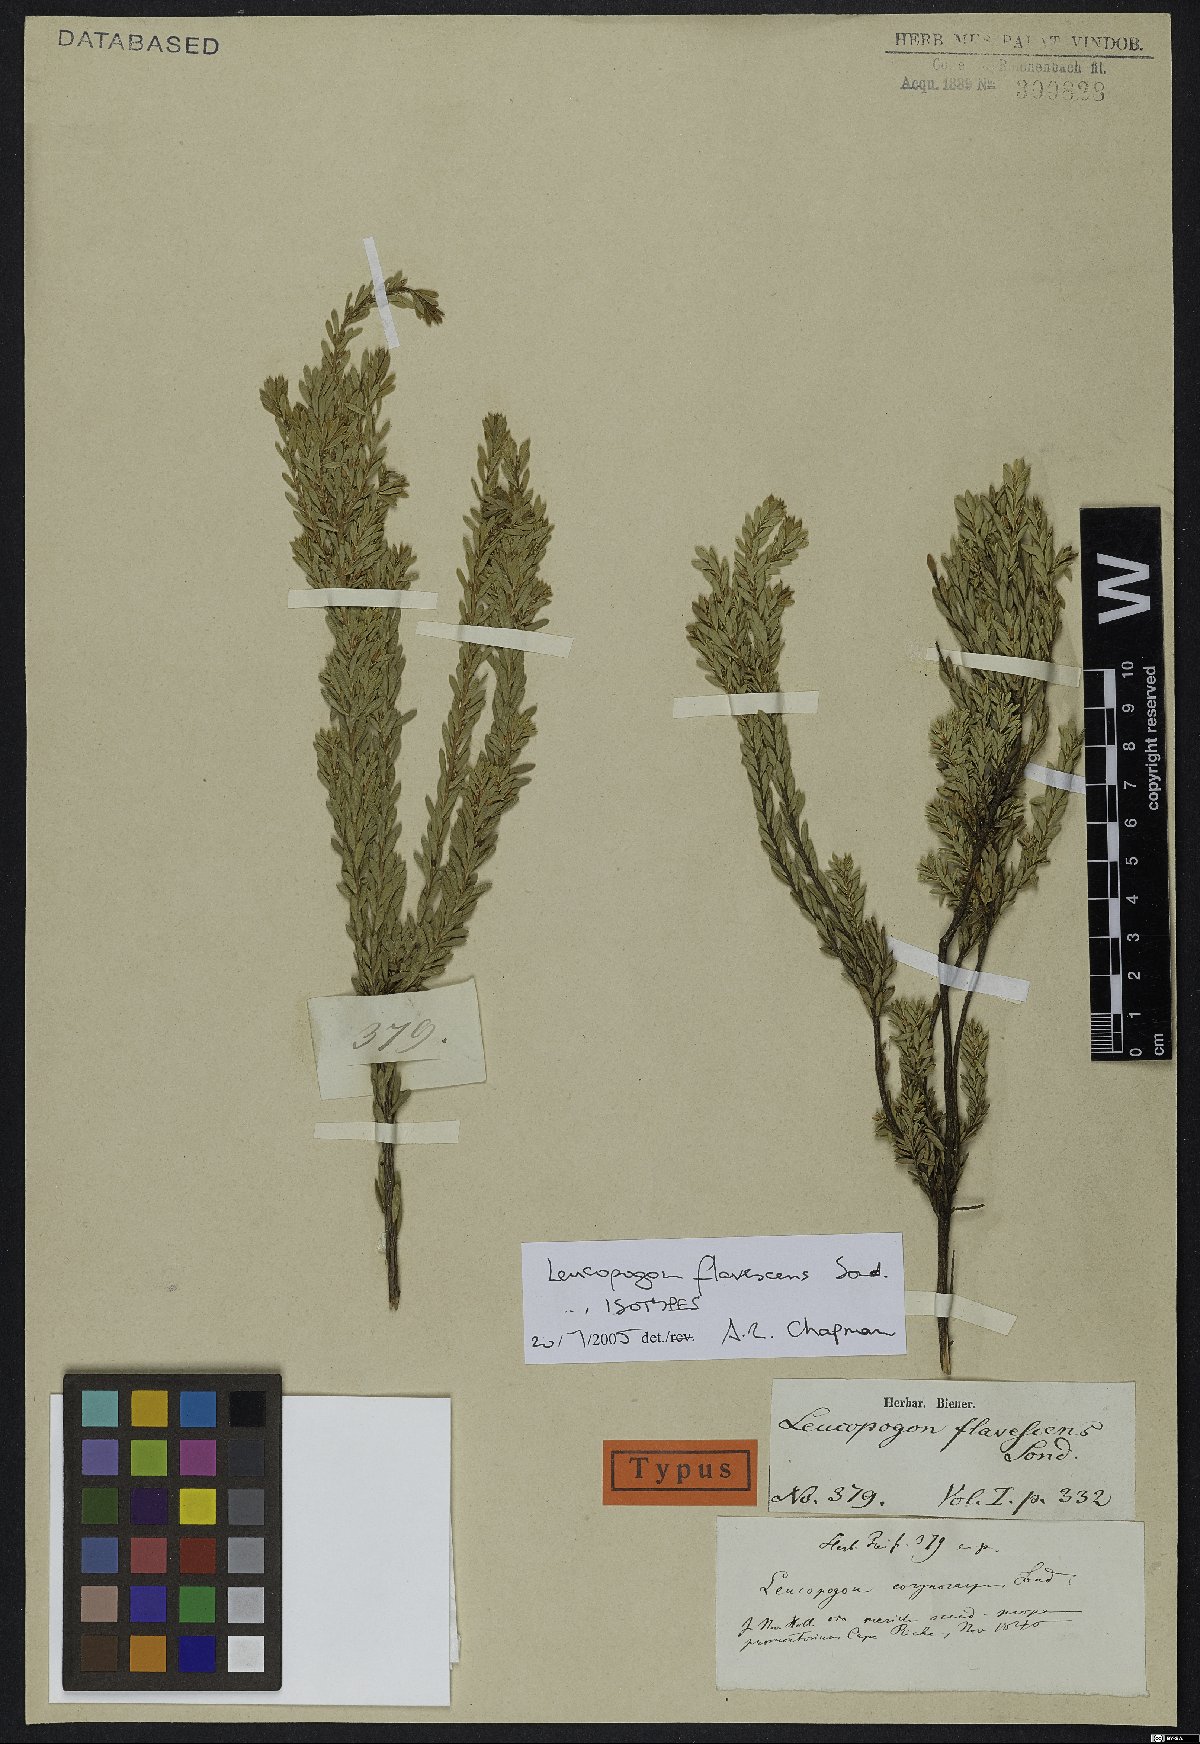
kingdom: Plantae
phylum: Tracheophyta
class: Magnoliopsida
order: Ericales
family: Ericaceae
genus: Styphelia
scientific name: Styphelia flavescens
